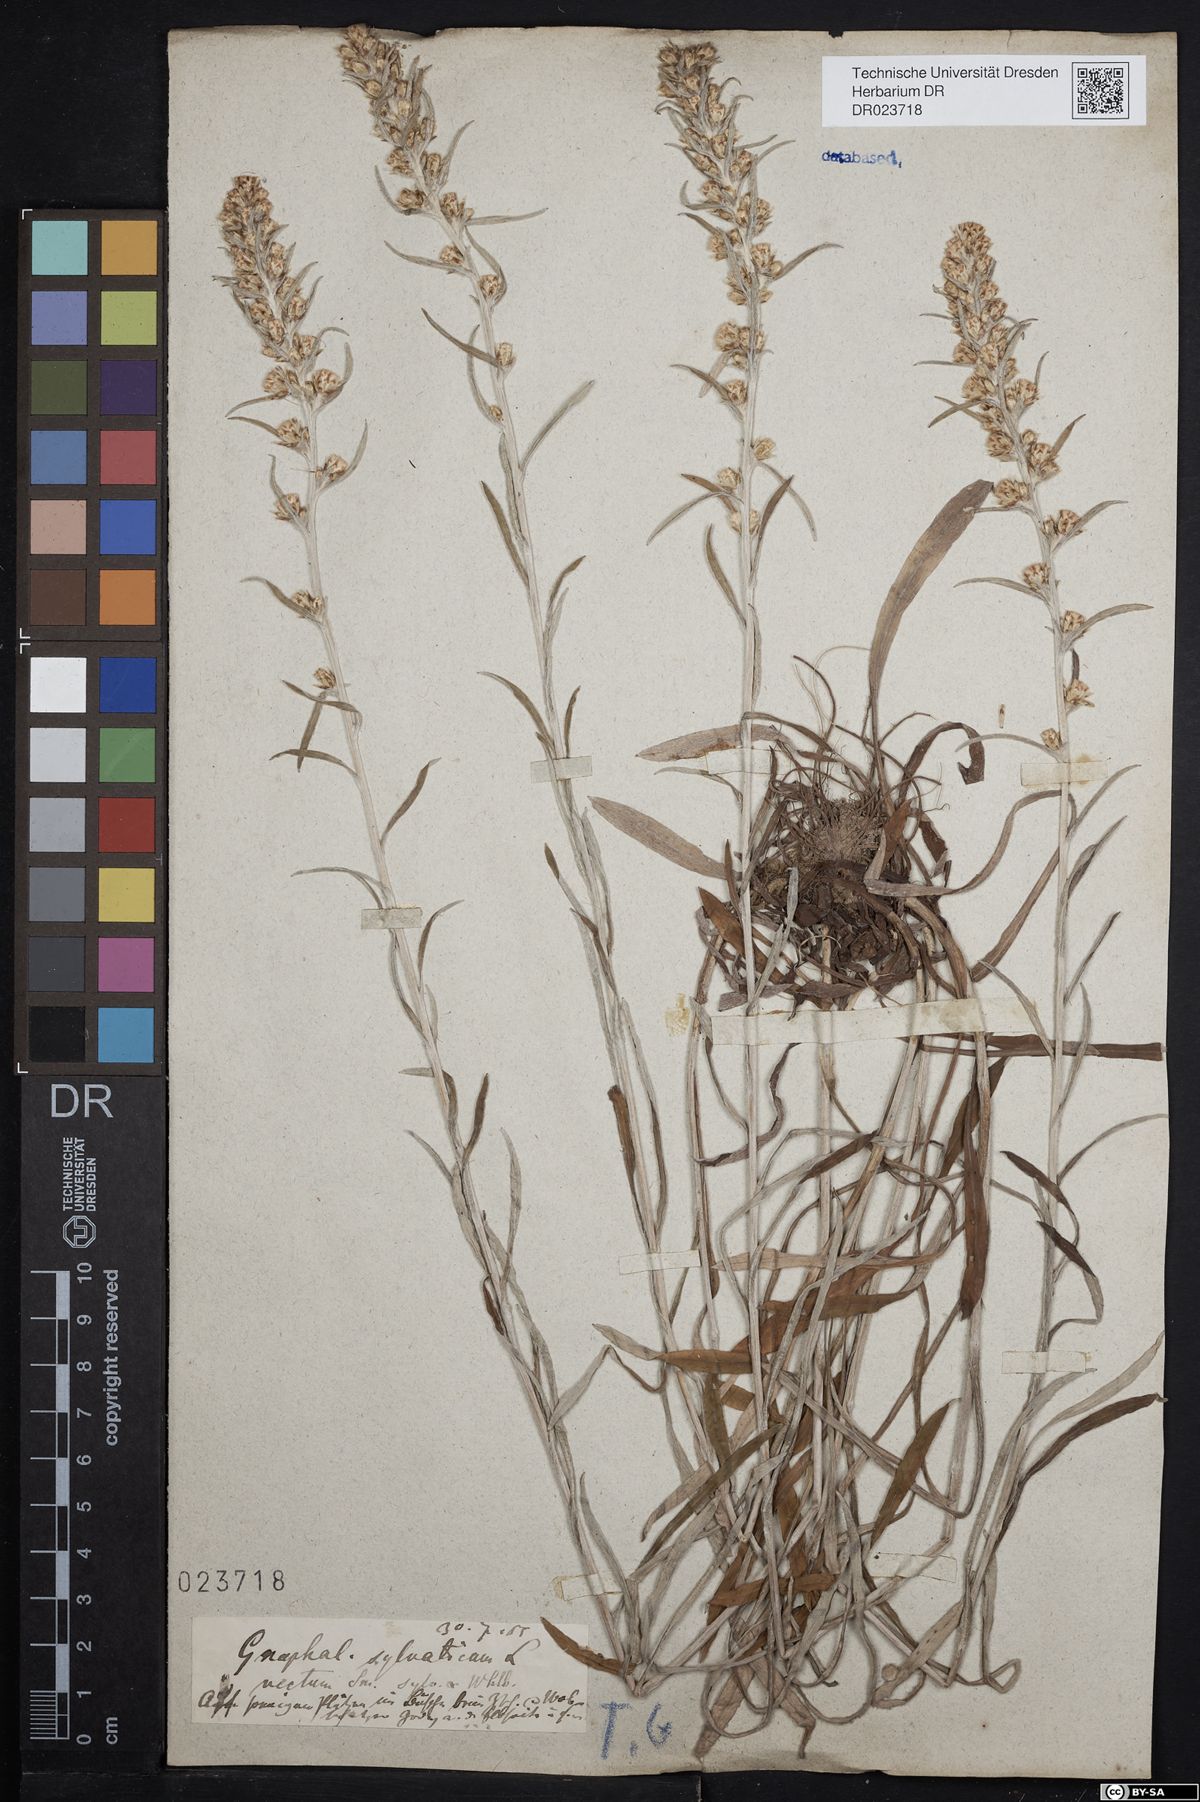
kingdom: Plantae
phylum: Tracheophyta
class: Magnoliopsida
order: Asterales
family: Asteraceae
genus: Omalotheca
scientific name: Omalotheca sylvatica
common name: Heath cudweed
